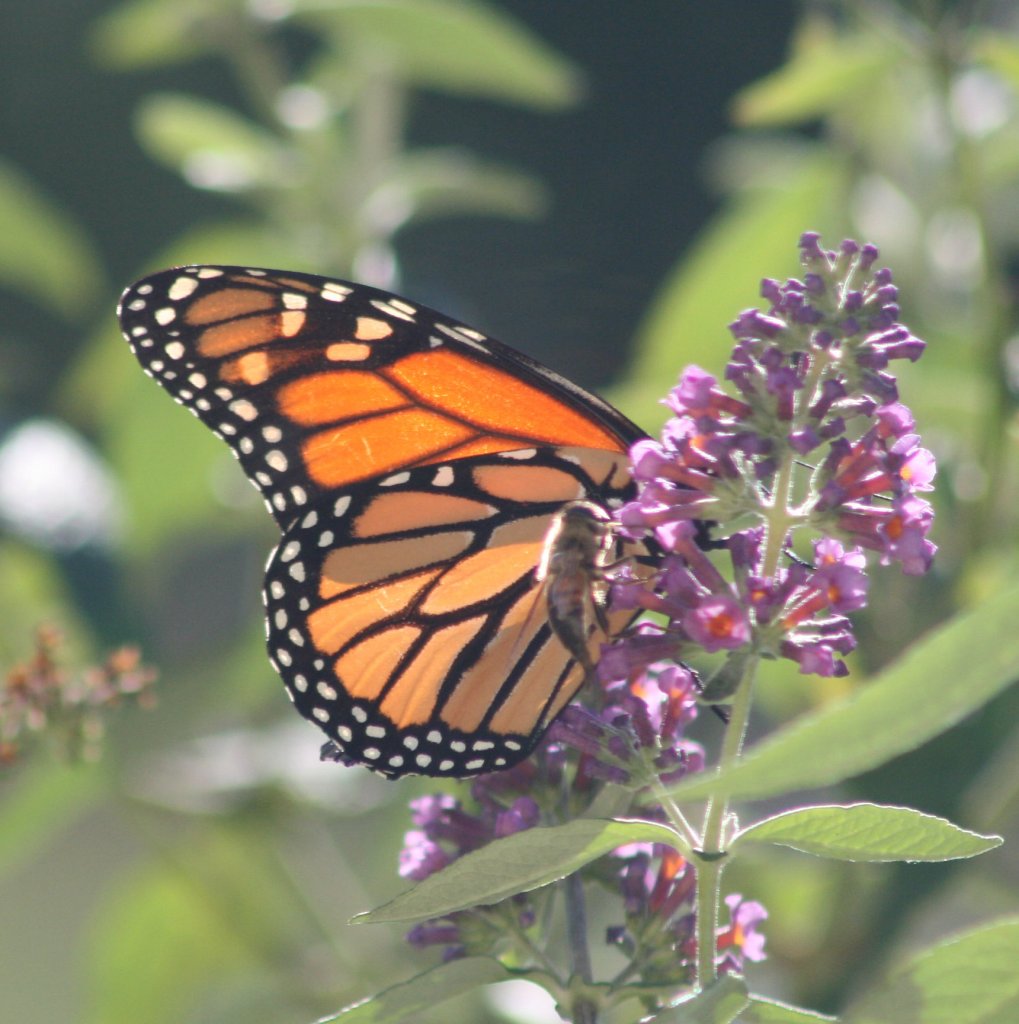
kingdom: Animalia
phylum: Arthropoda
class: Insecta
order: Lepidoptera
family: Nymphalidae
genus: Danaus
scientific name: Danaus plexippus
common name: Monarch
